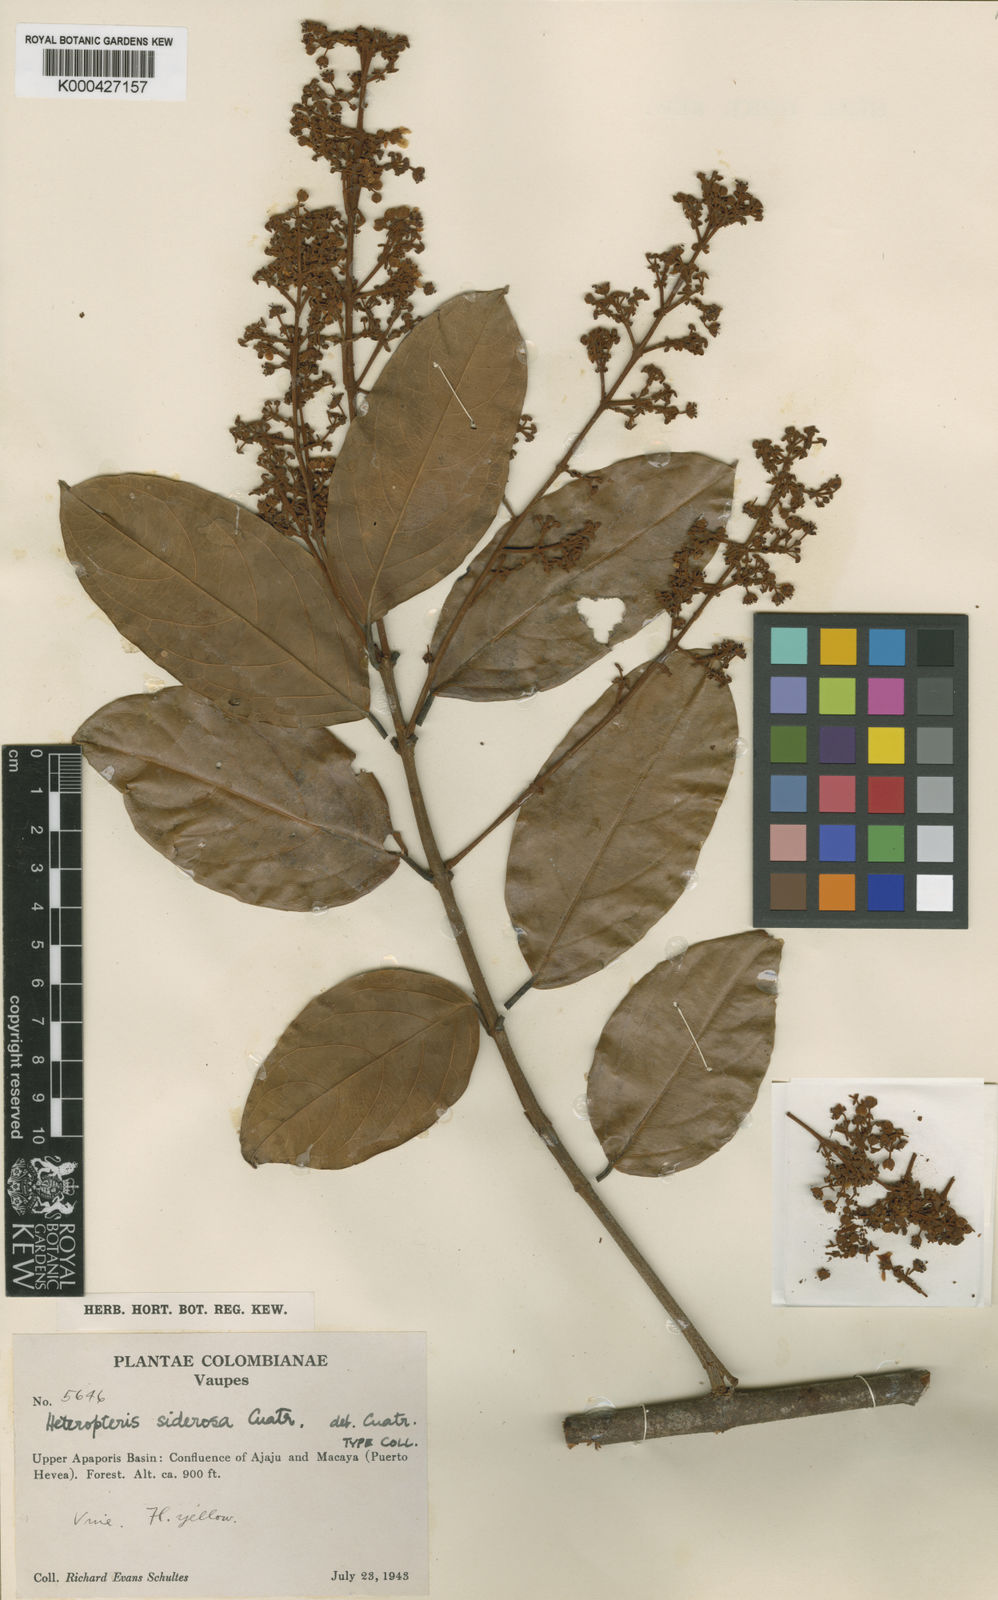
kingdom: Plantae
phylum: Tracheophyta
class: Magnoliopsida
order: Malpighiales
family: Malpighiaceae
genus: Heteropterys
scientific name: Heteropterys siderosa
